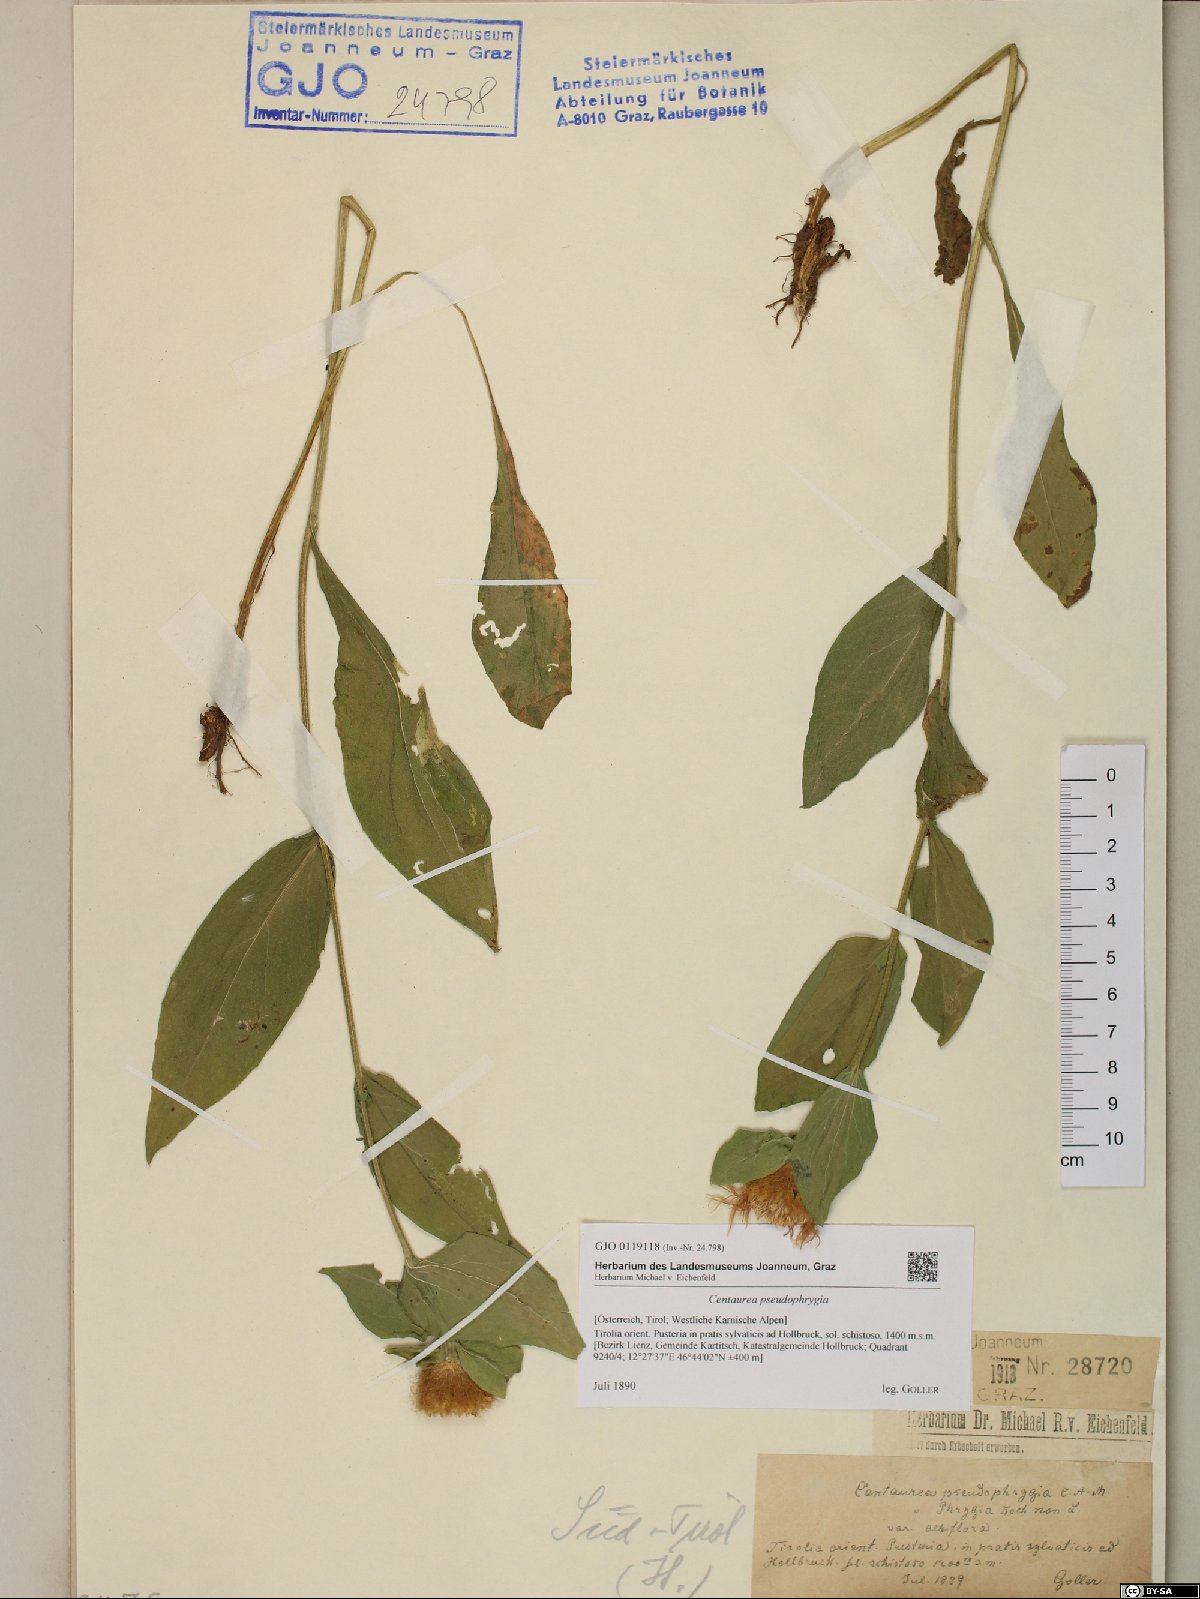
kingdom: Plantae
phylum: Tracheophyta
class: Magnoliopsida
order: Asterales
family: Asteraceae
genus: Centaurea
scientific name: Centaurea pseudophrygia
